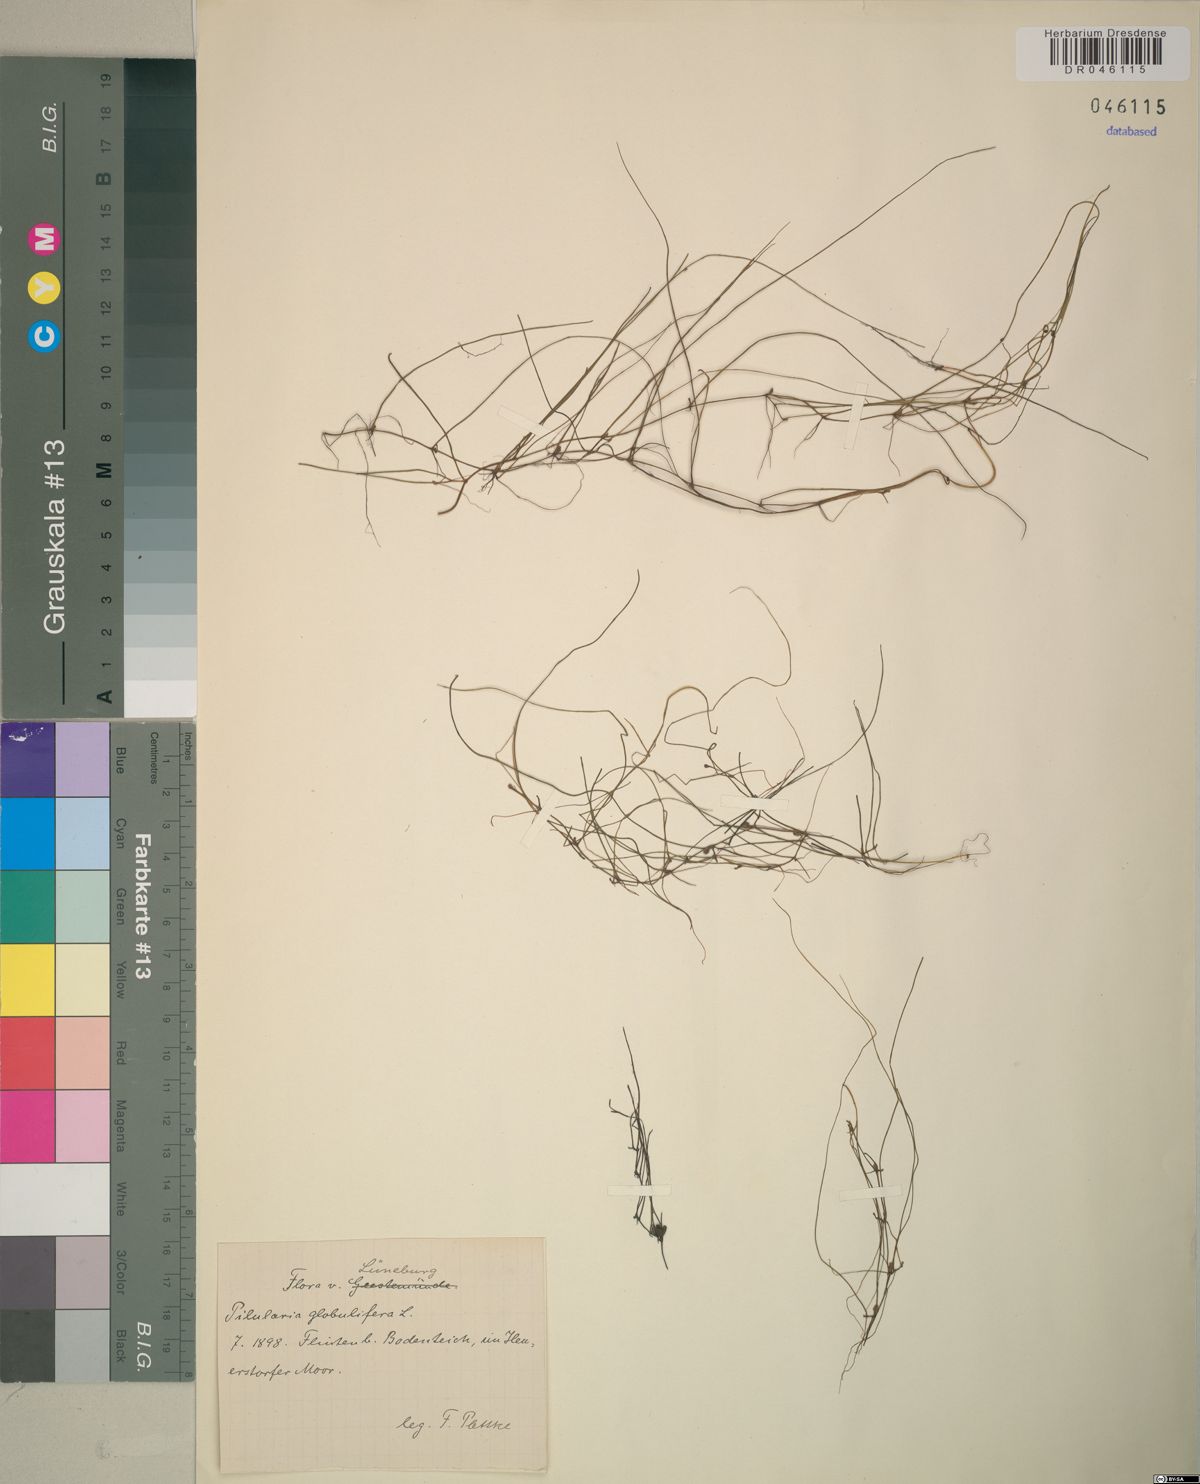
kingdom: Plantae
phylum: Tracheophyta
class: Polypodiopsida
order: Salviniales
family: Marsileaceae
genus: Pilularia
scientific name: Pilularia globulifera
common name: Pillwort
